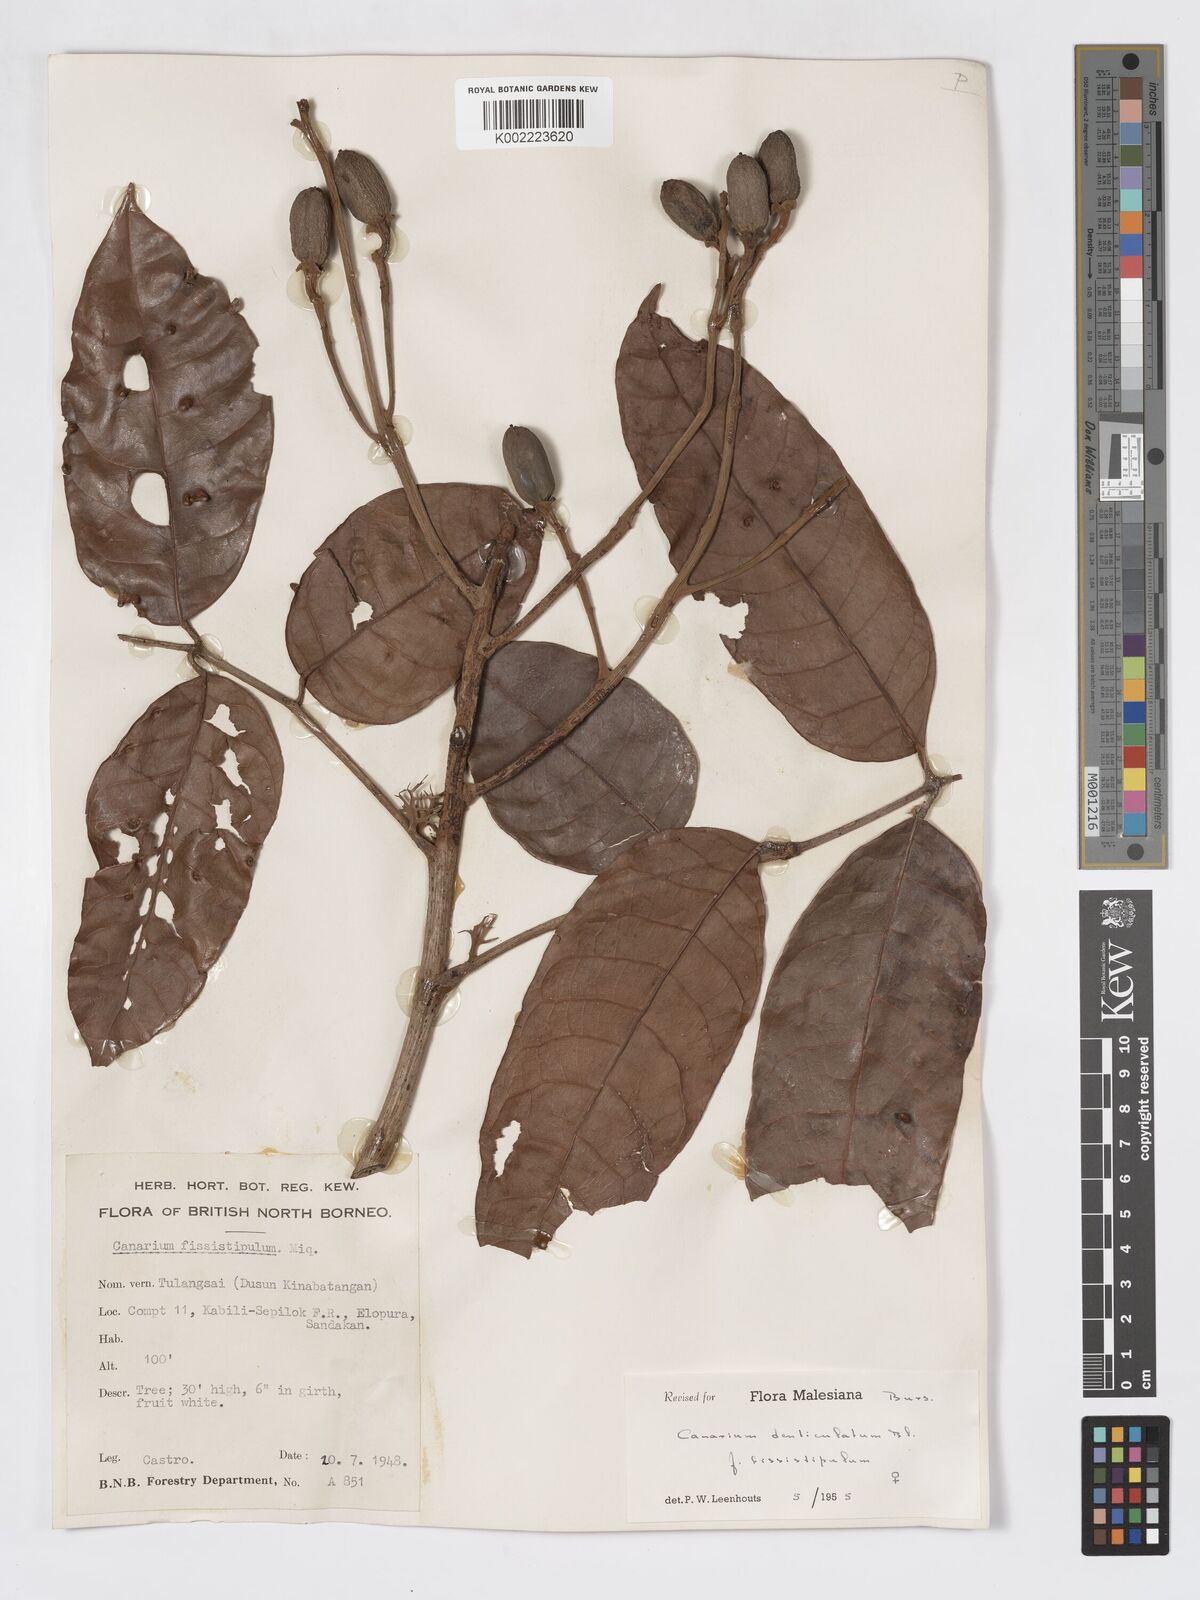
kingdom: Plantae
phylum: Tracheophyta
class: Magnoliopsida
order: Sapindales
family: Burseraceae
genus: Canarium
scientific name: Canarium denticulatum
